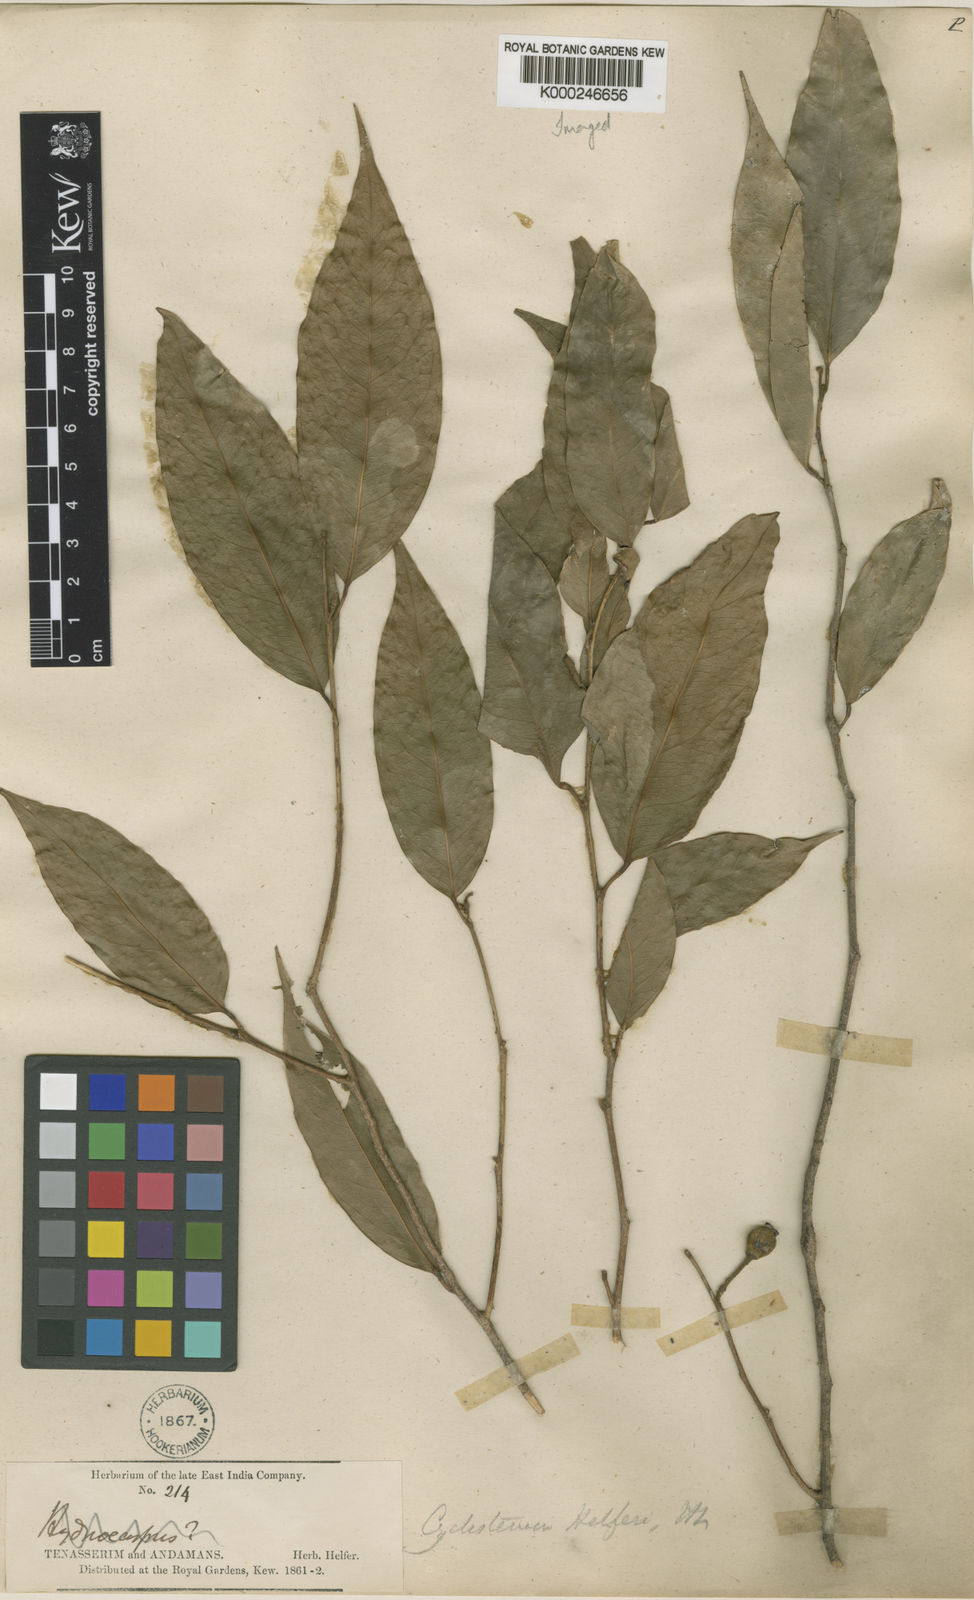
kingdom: Plantae
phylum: Tracheophyta
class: Magnoliopsida
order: Malpighiales
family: Putranjivaceae
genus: Drypetes
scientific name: Drypetes helferi
